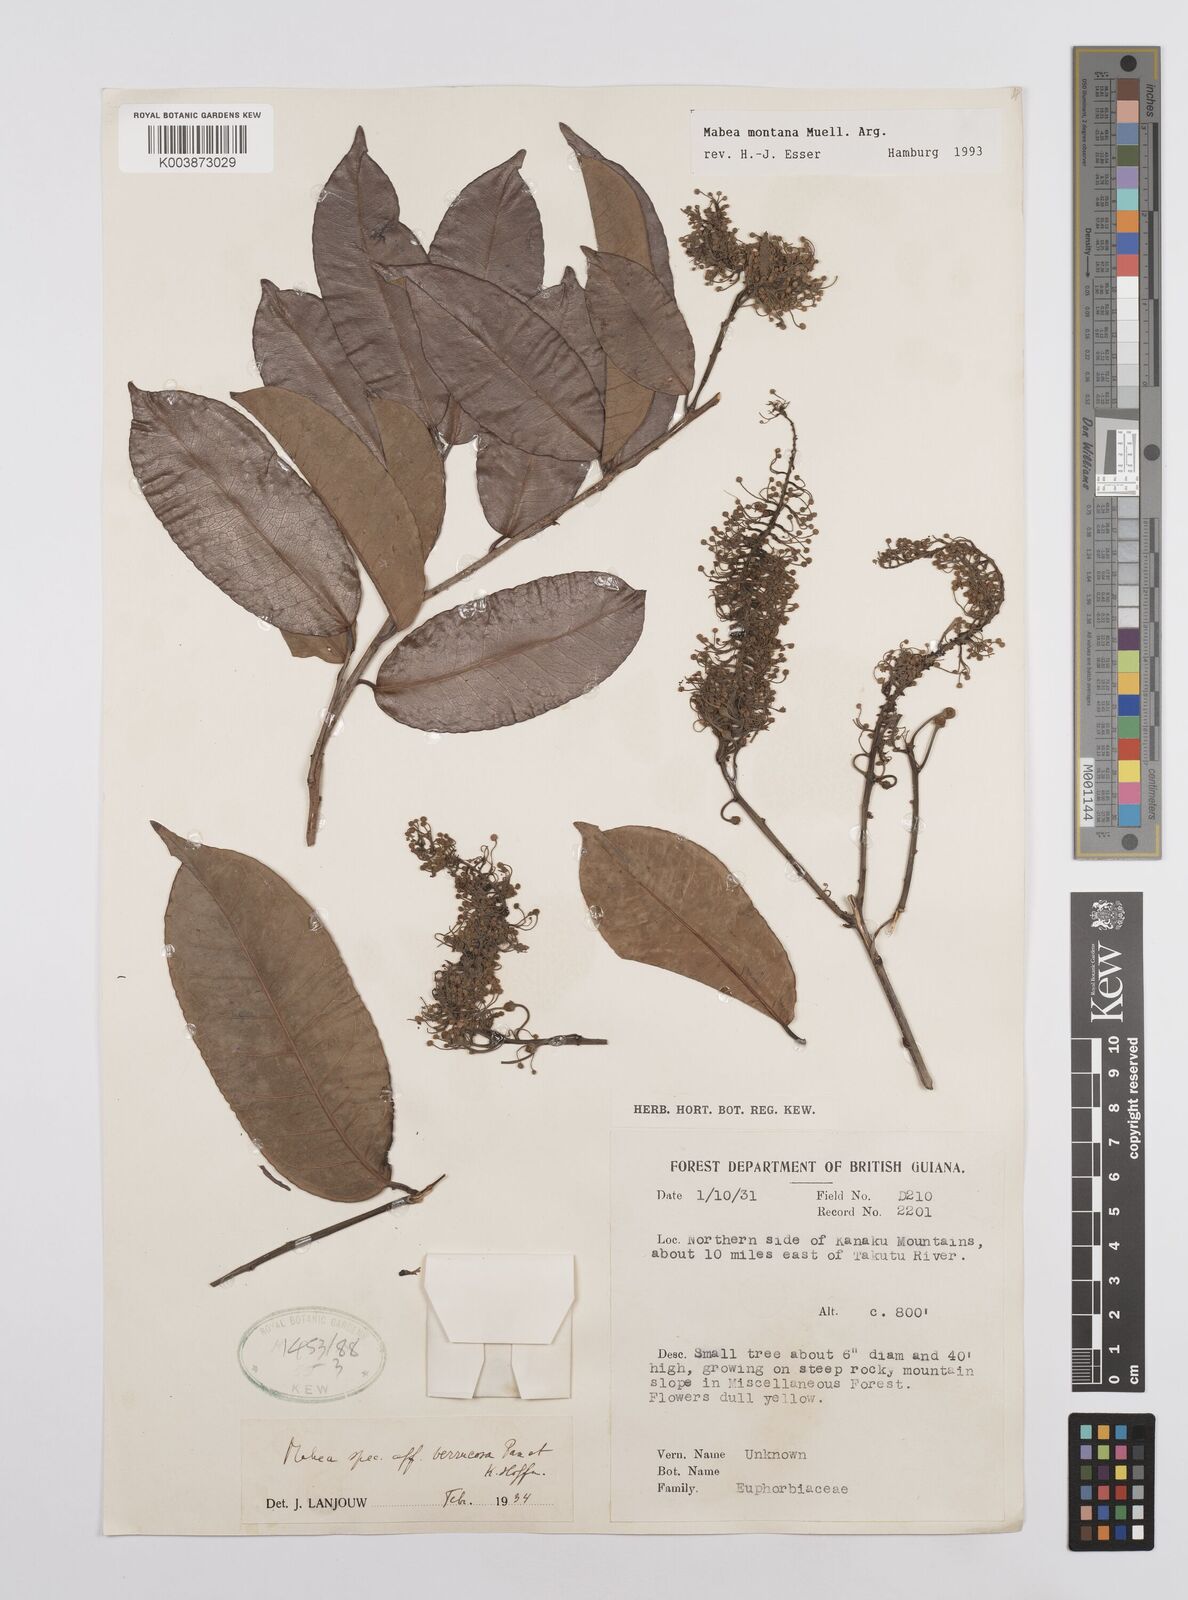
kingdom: Plantae
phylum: Tracheophyta
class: Magnoliopsida
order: Malpighiales
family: Euphorbiaceae
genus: Mabea
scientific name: Mabea montana
